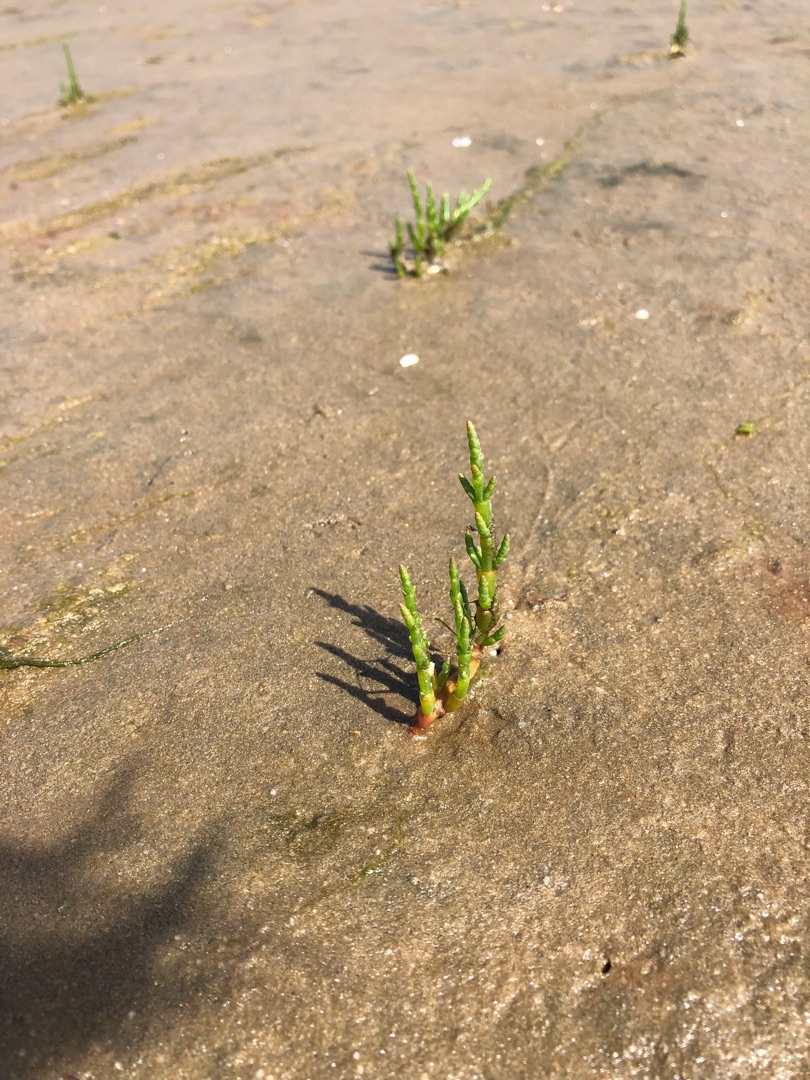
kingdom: Plantae
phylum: Tracheophyta
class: Magnoliopsida
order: Caryophyllales
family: Amaranthaceae
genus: Salicornia
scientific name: Salicornia
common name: Salturtslægten
